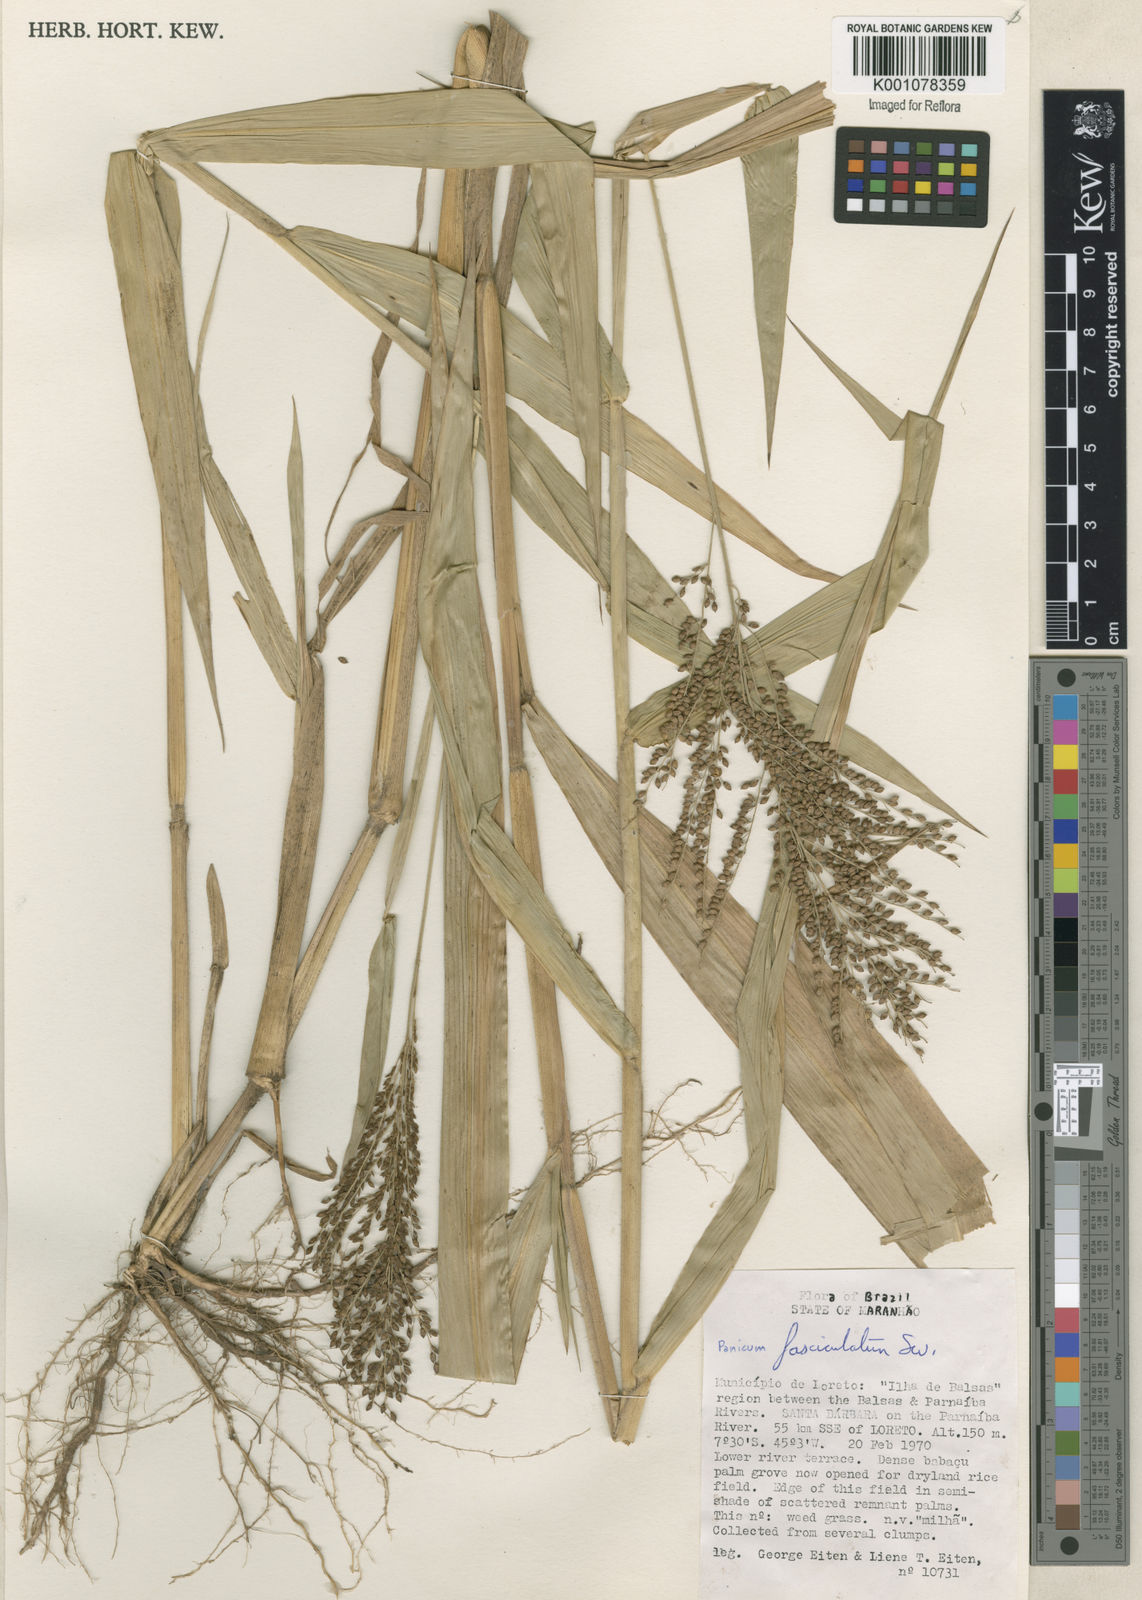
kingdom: Plantae
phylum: Tracheophyta
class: Liliopsida
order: Poales
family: Poaceae
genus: Urochloa
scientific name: Urochloa fusca
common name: Browntop signal grass
